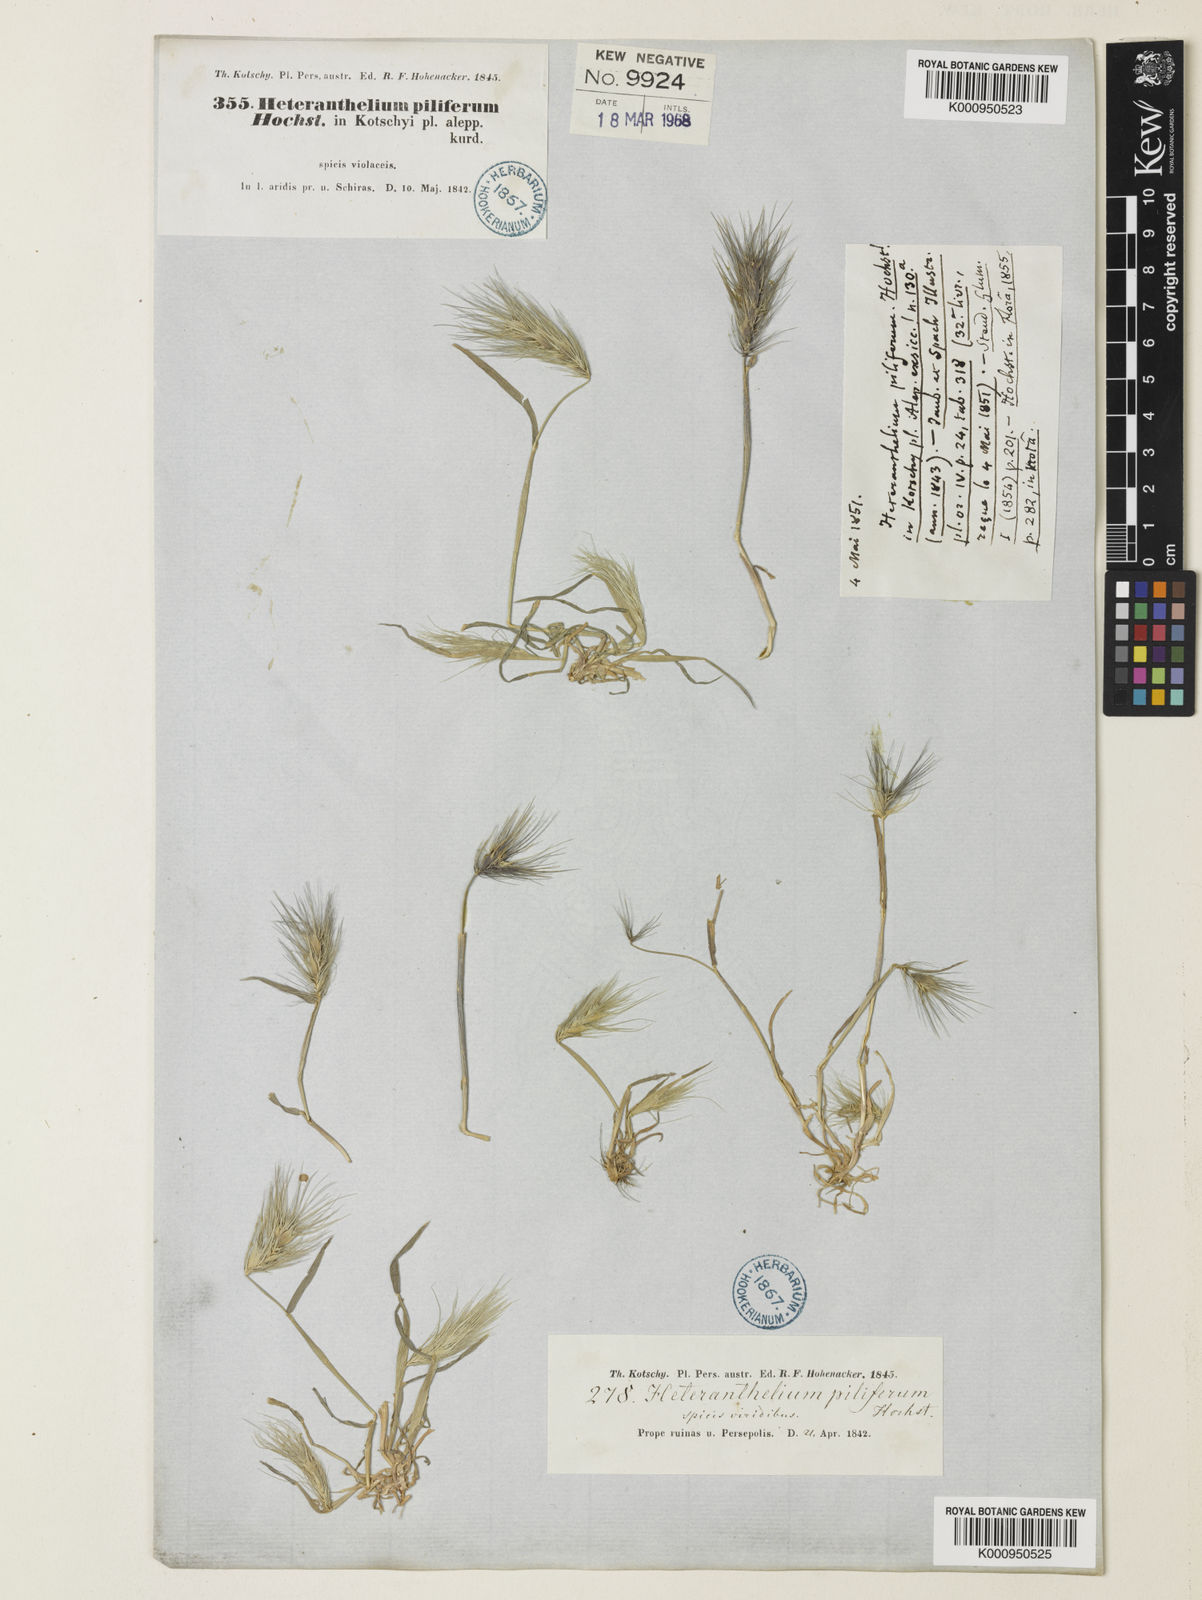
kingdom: Plantae
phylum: Tracheophyta
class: Liliopsida
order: Poales
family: Poaceae
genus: Heteranthelium
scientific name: Heteranthelium piliferum
